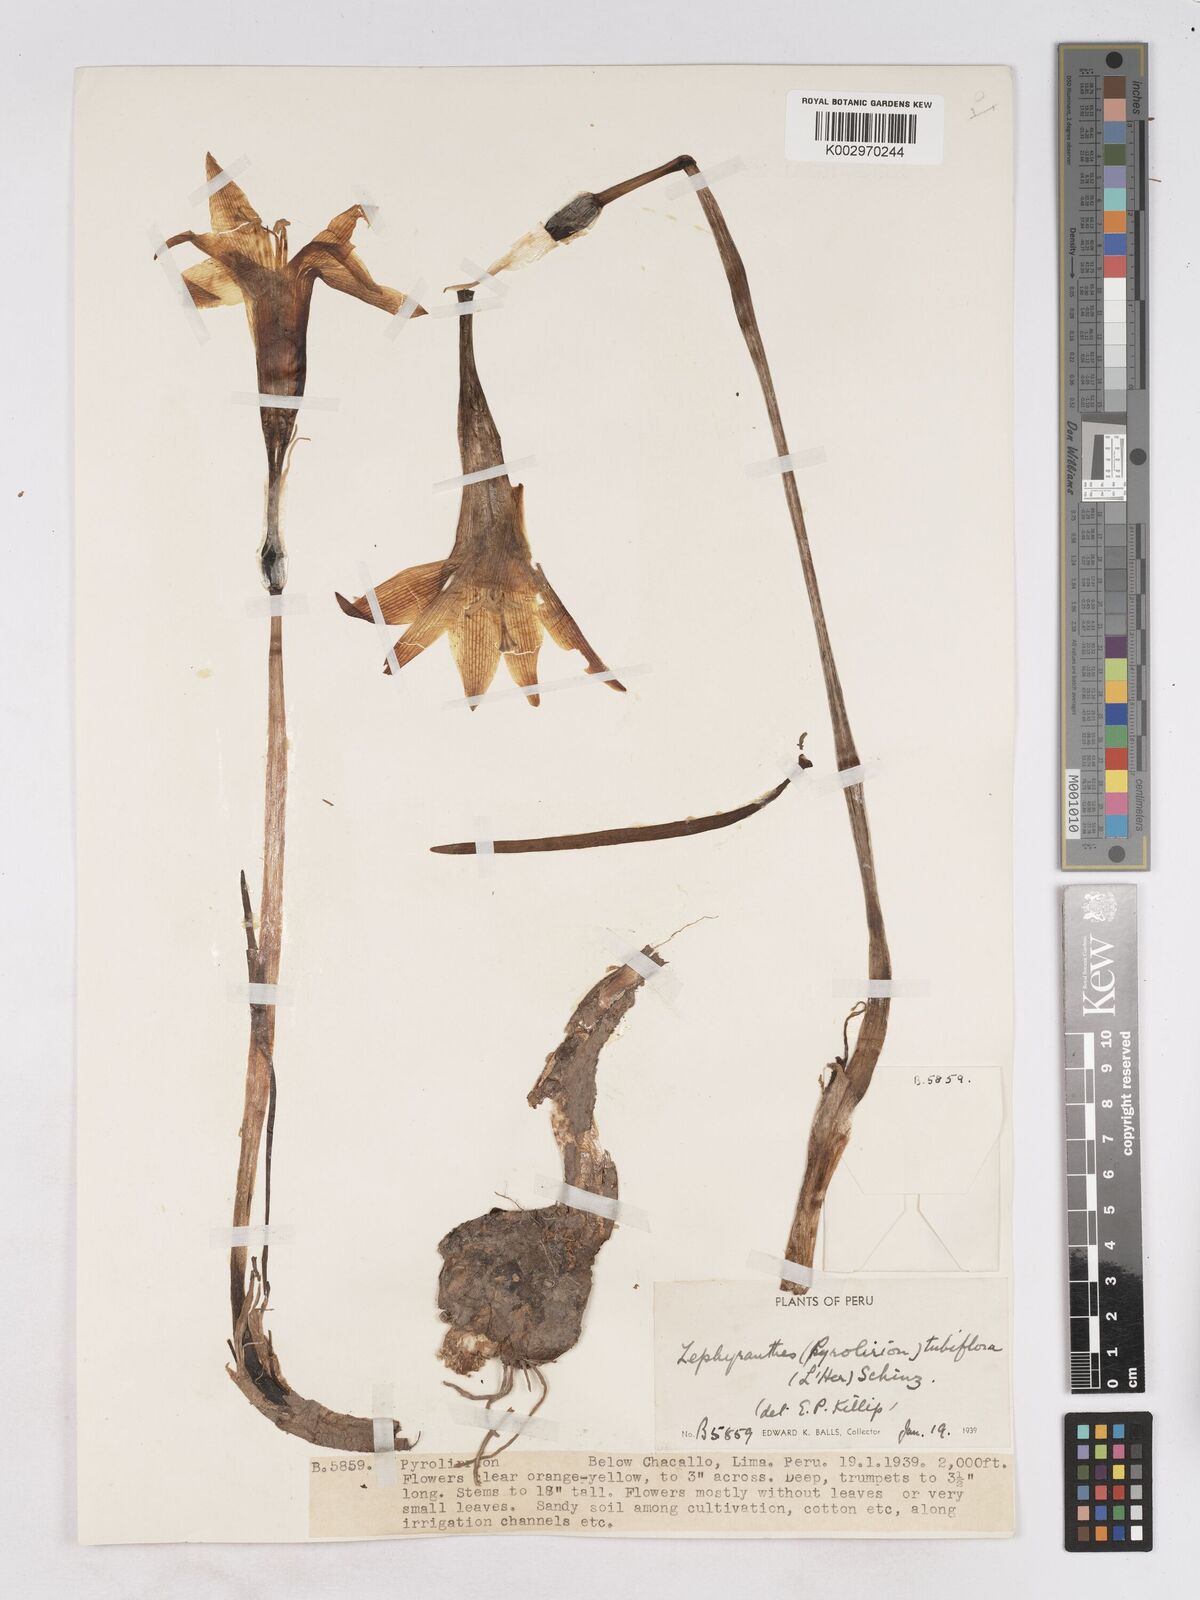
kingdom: Plantae
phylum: Tracheophyta
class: Liliopsida
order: Asparagales
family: Amaryllidaceae
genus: Pyrolirion
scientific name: Pyrolirion arvense
